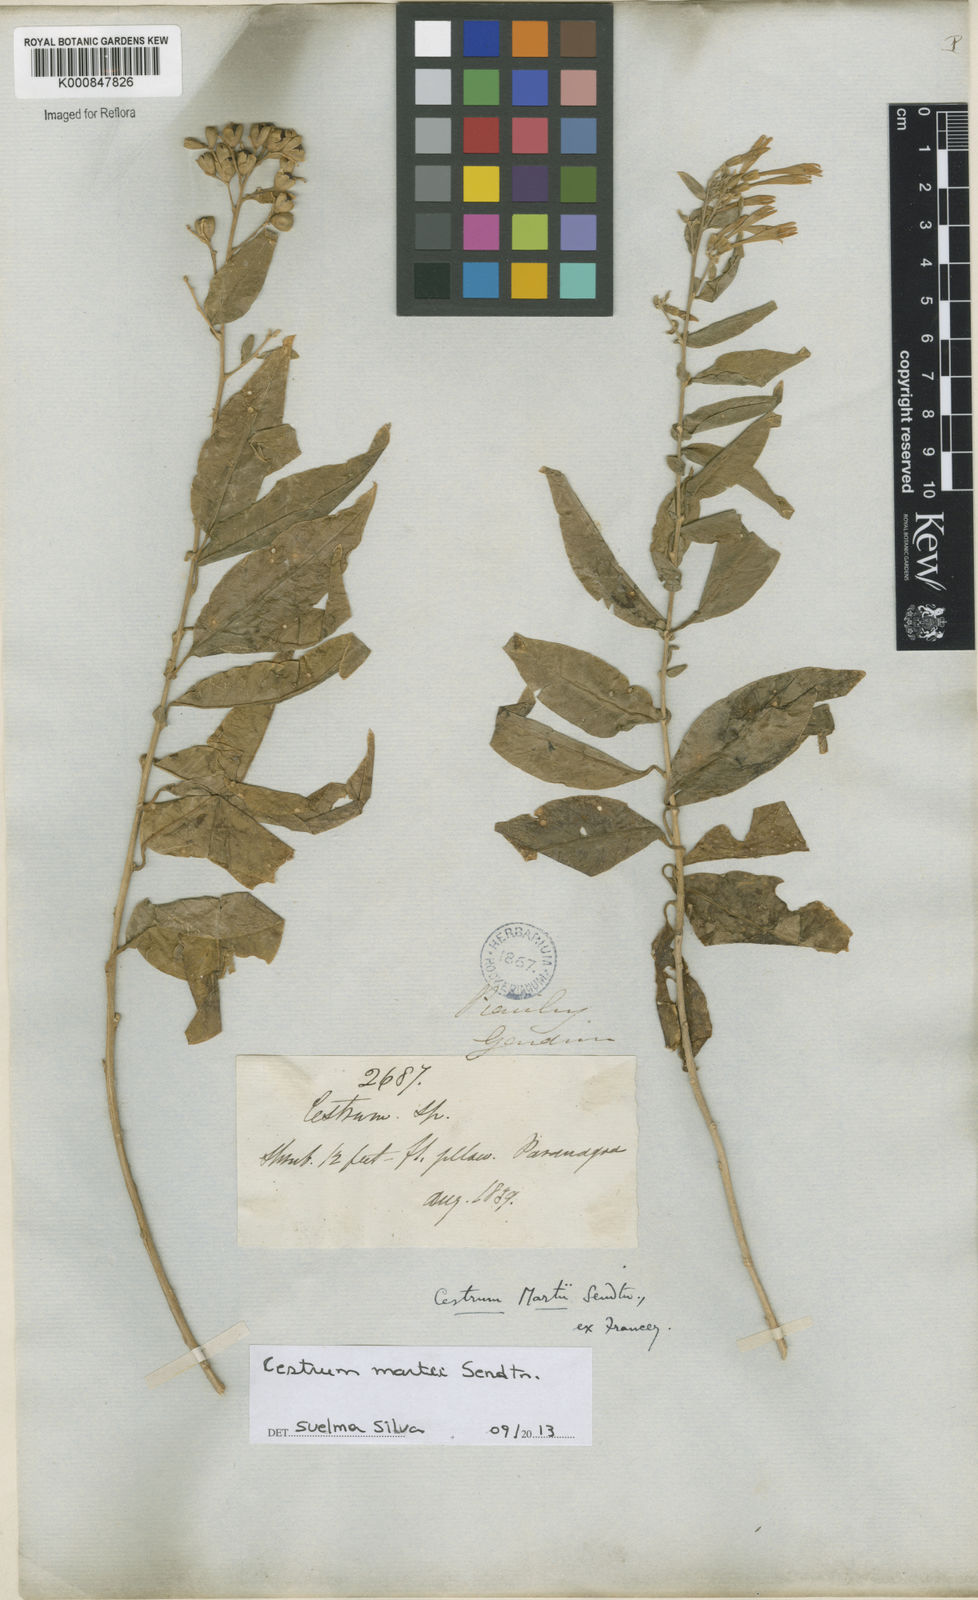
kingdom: Plantae
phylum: Tracheophyta
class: Magnoliopsida
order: Solanales
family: Solanaceae
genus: Cestrum
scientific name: Cestrum martii
